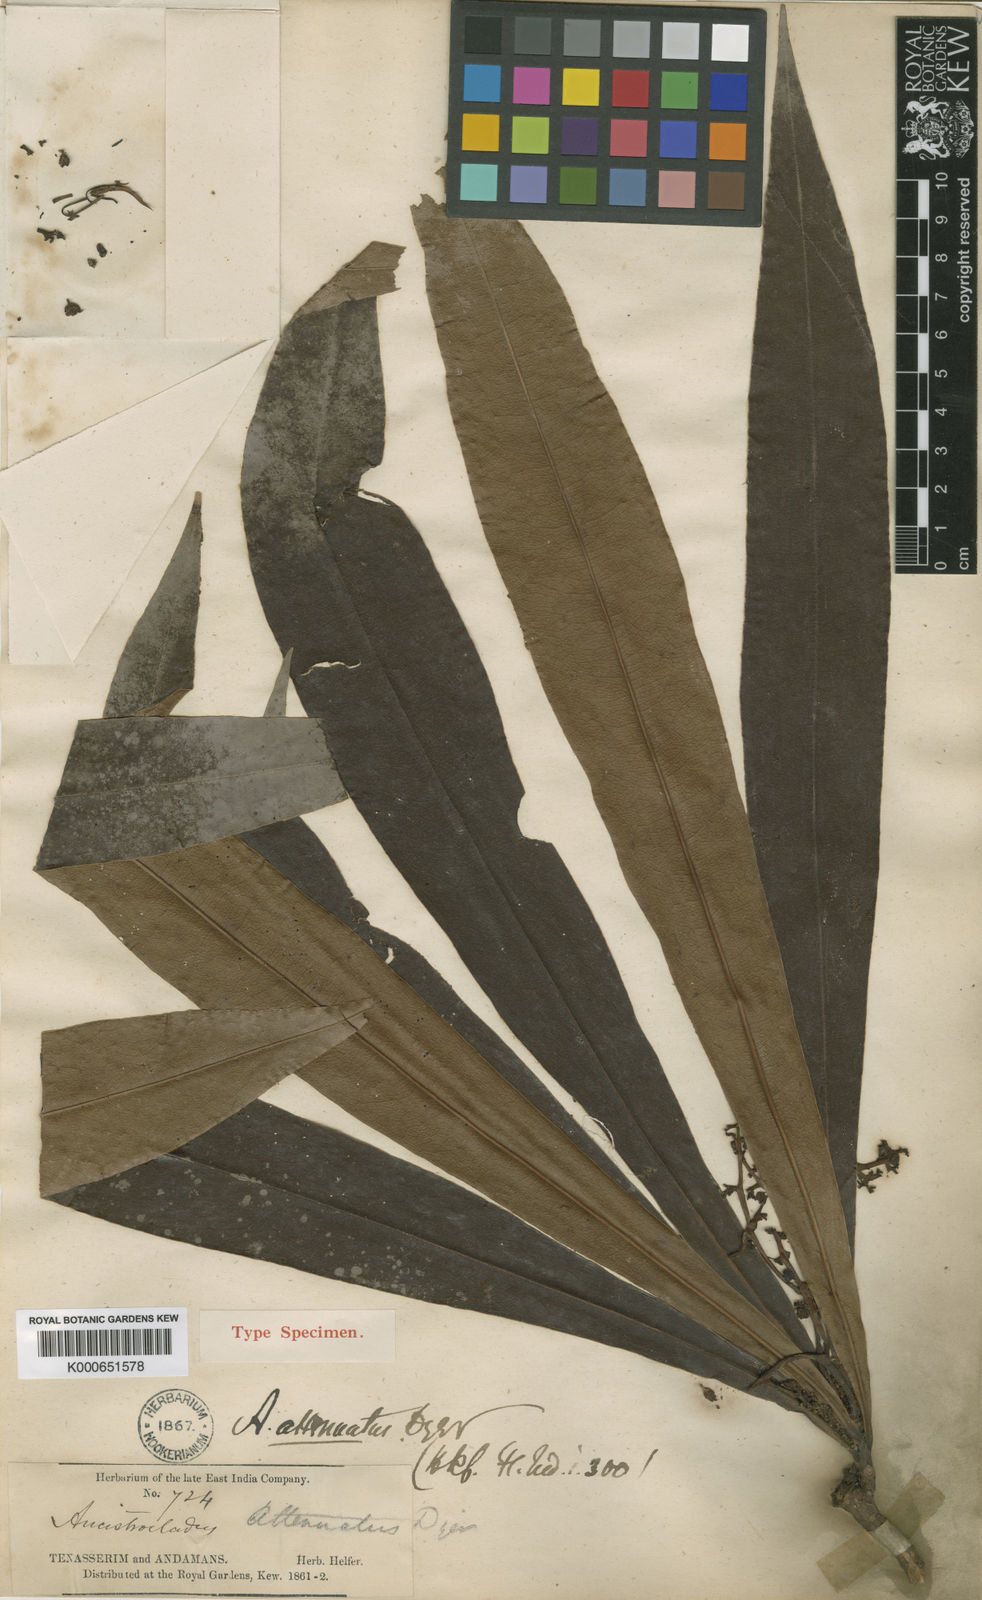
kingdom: Plantae
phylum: Tracheophyta
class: Magnoliopsida
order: Caryophyllales
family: Ancistrocladaceae
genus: Ancistrocladus
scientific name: Ancistrocladus attenuatus
